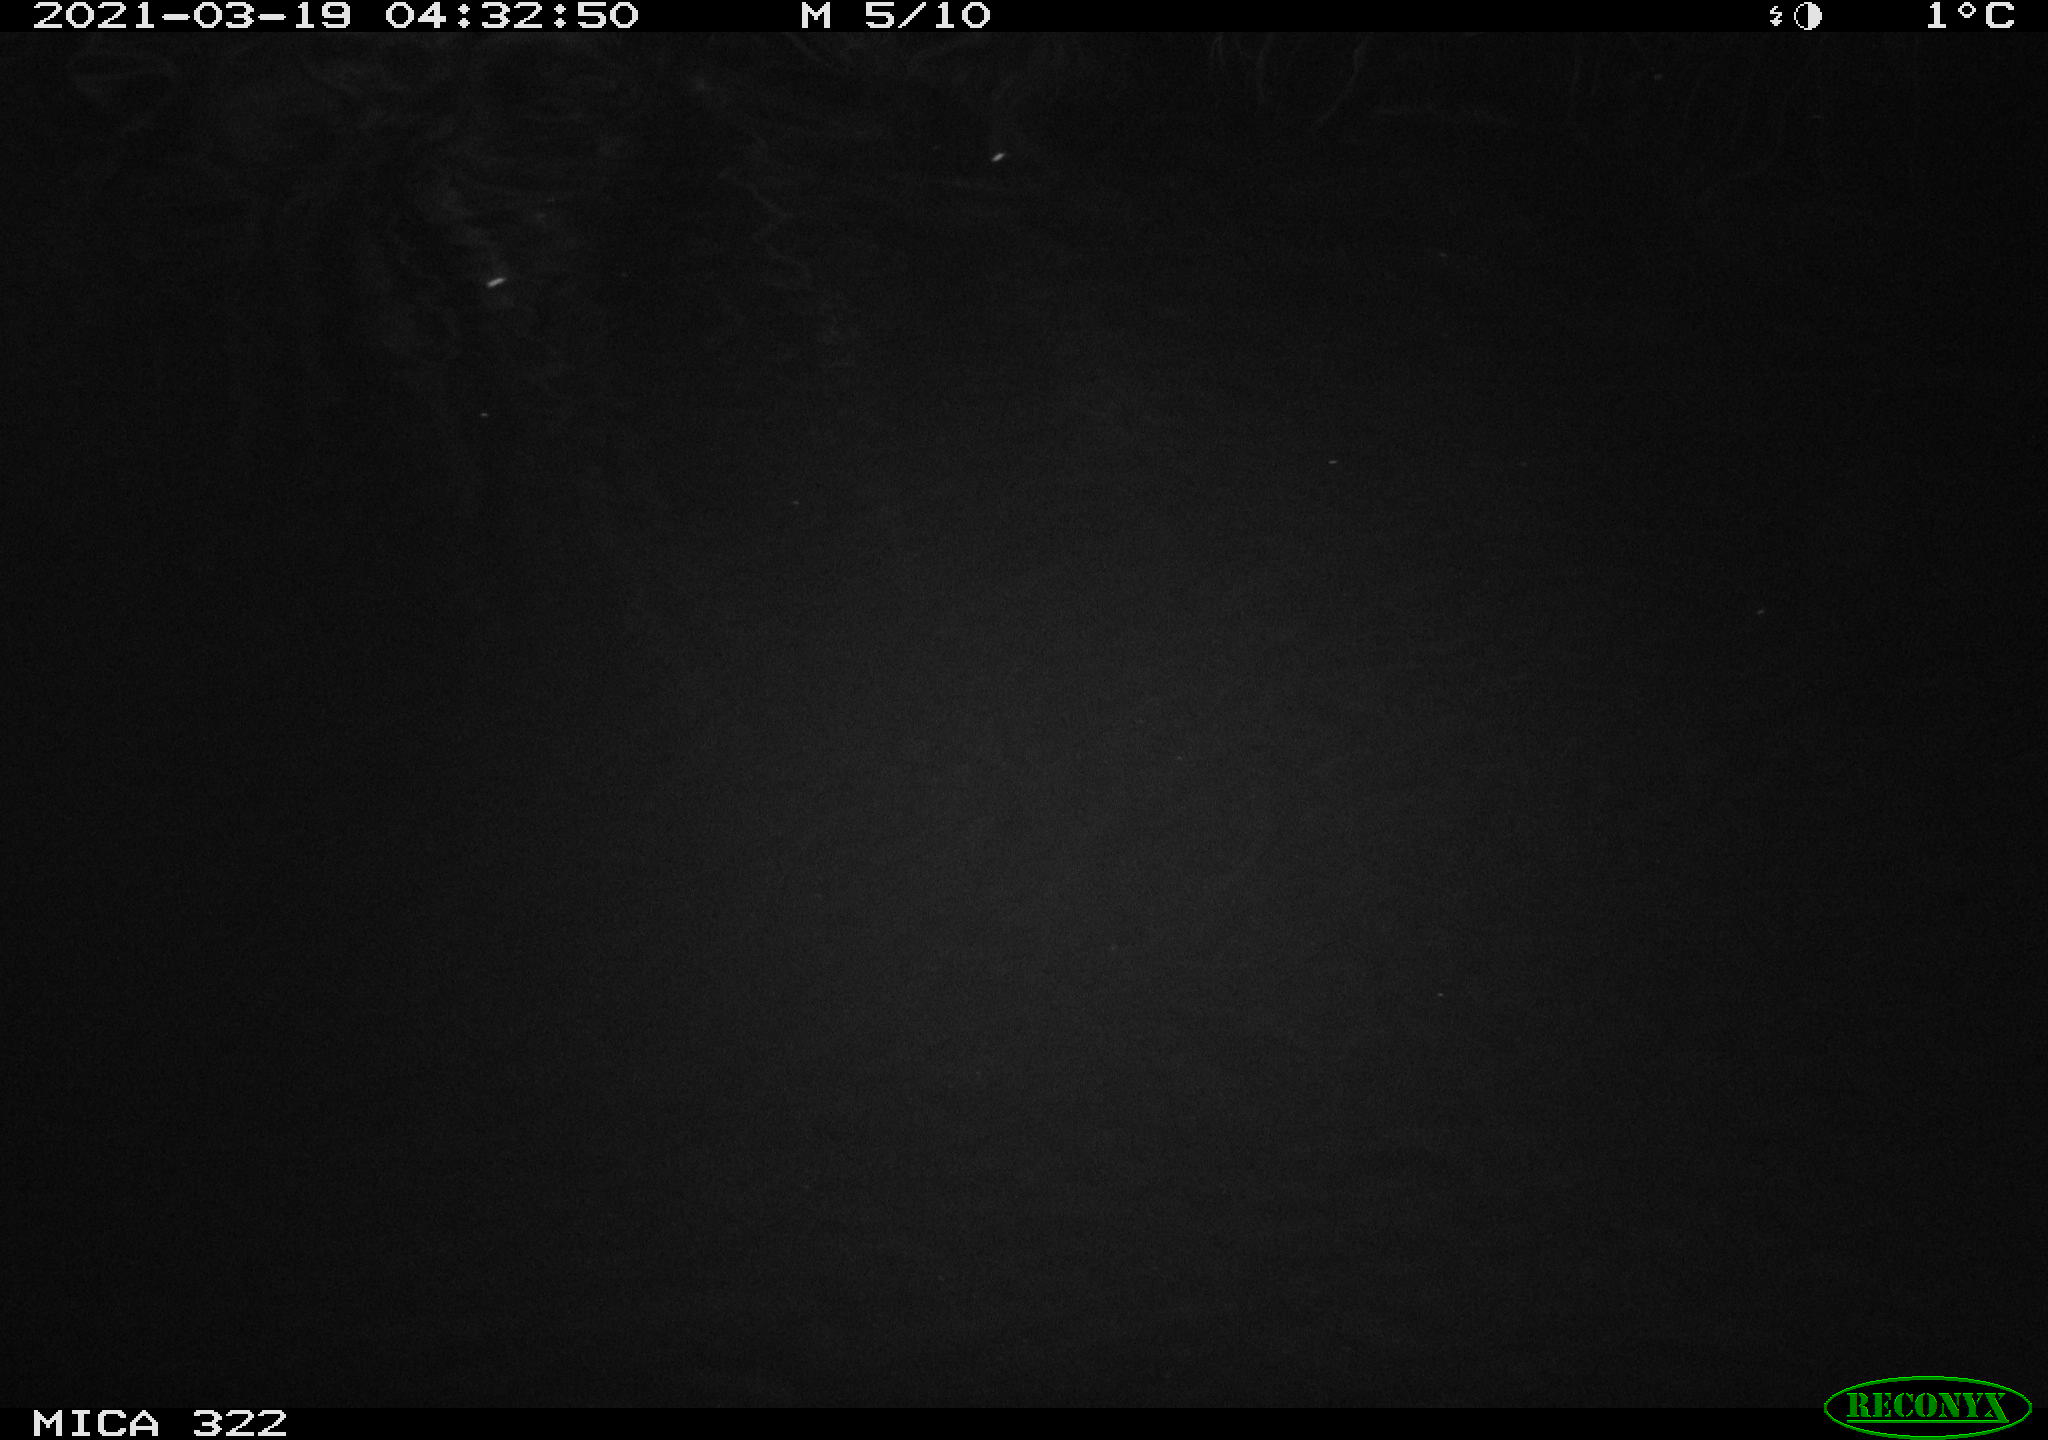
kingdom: Animalia
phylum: Chordata
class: Aves
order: Anseriformes
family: Anatidae
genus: Anas
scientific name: Anas platyrhynchos
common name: Mallard
